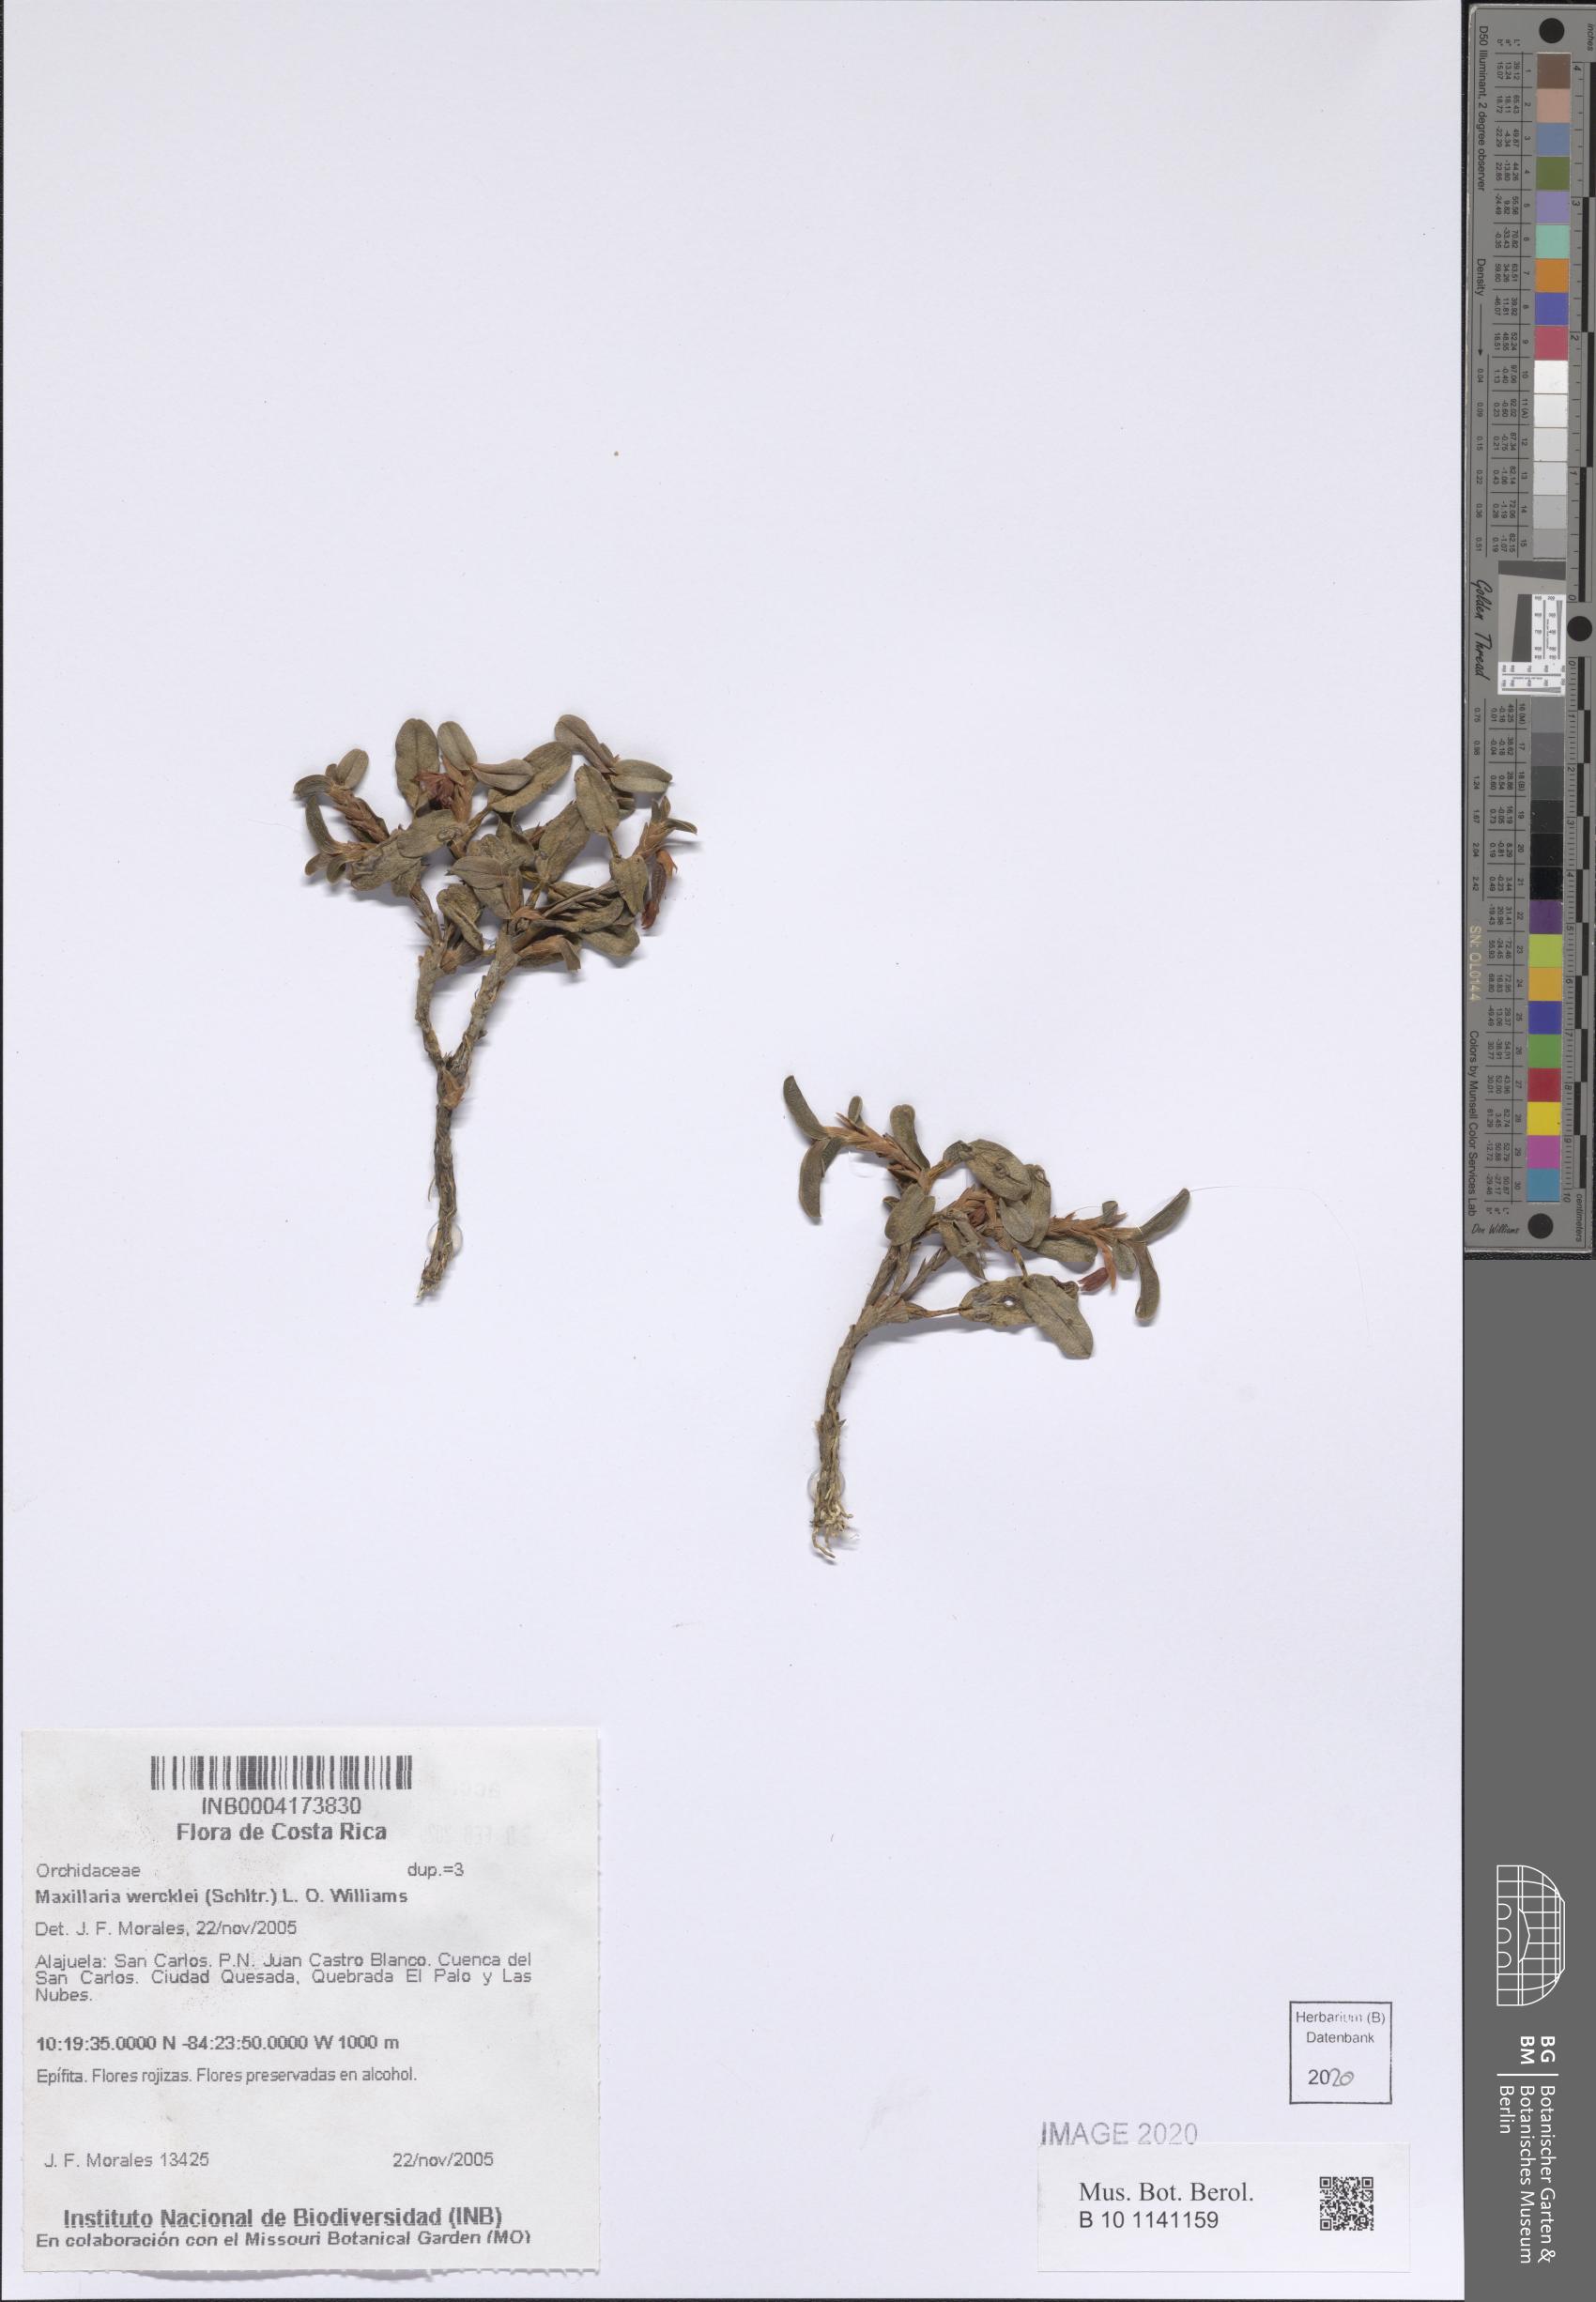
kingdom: Plantae
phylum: Tracheophyta
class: Liliopsida
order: Asparagales
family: Orchidaceae
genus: Maxillaria
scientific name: Maxillaria wercklei
